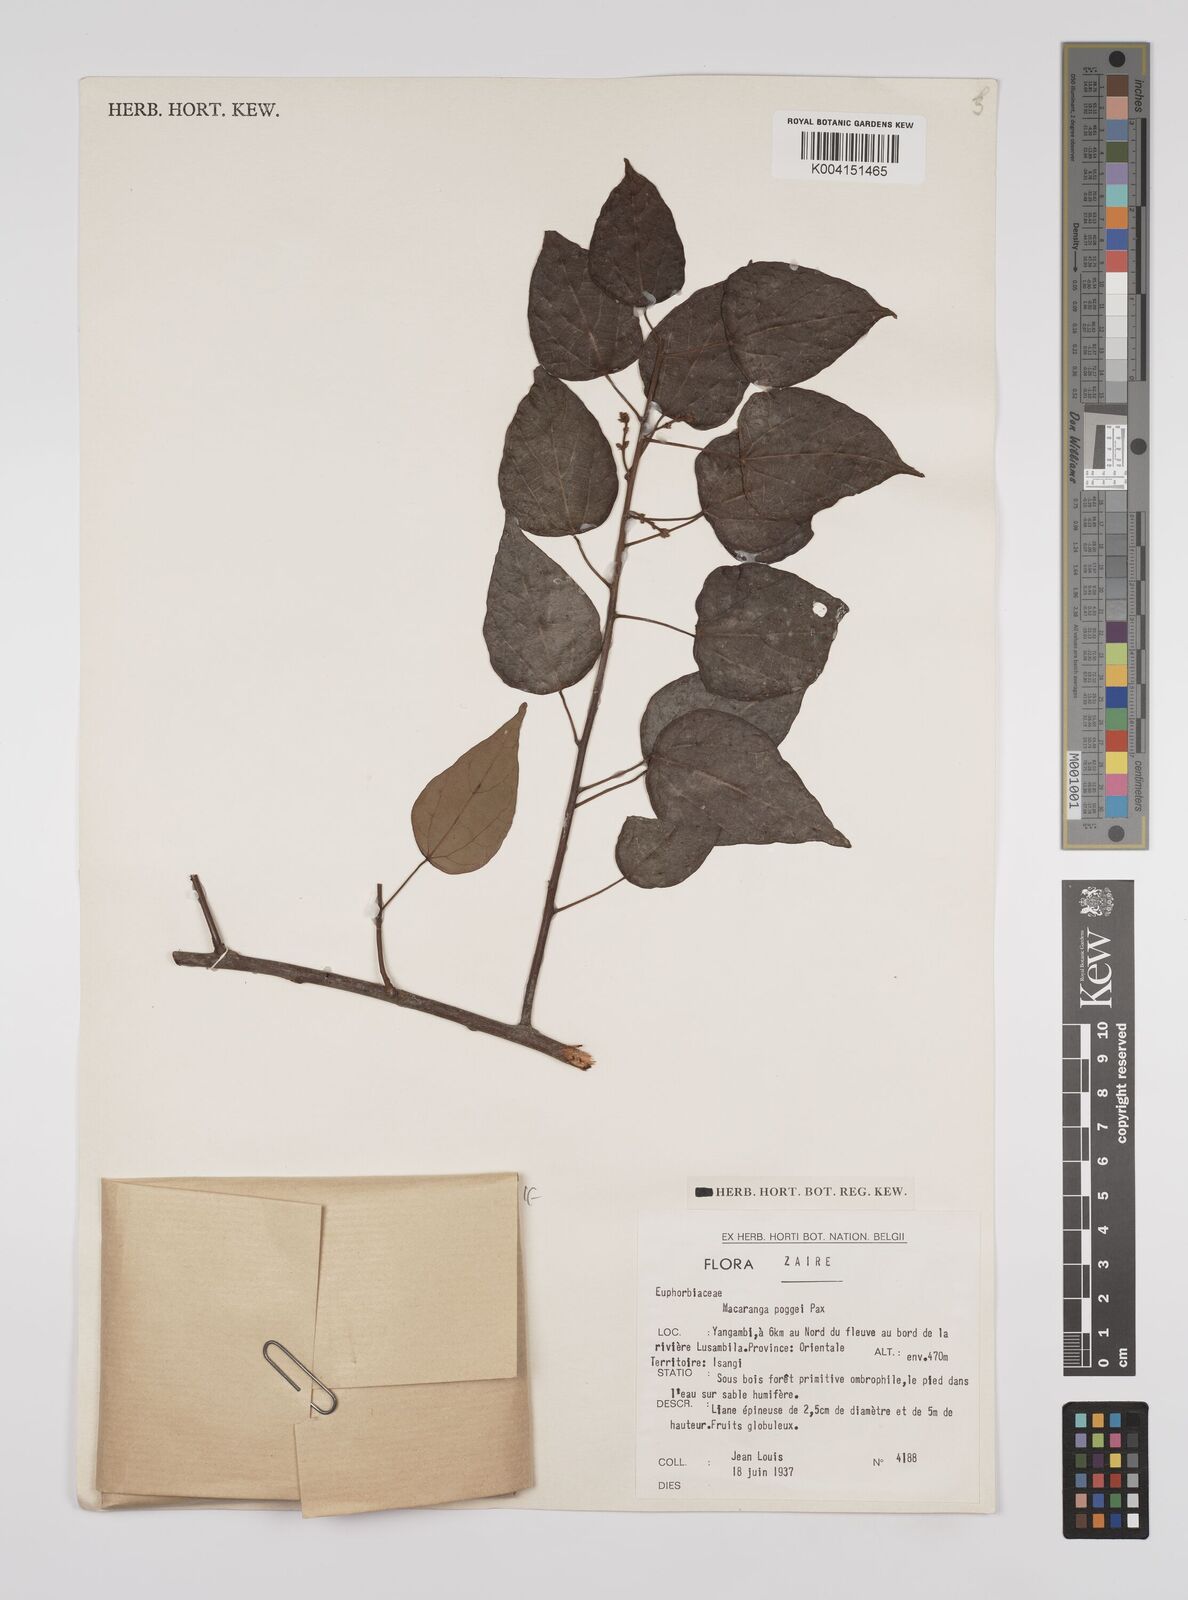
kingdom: Plantae
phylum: Tracheophyta
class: Magnoliopsida
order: Malpighiales
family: Euphorbiaceae
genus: Macaranga
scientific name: Macaranga poggei
